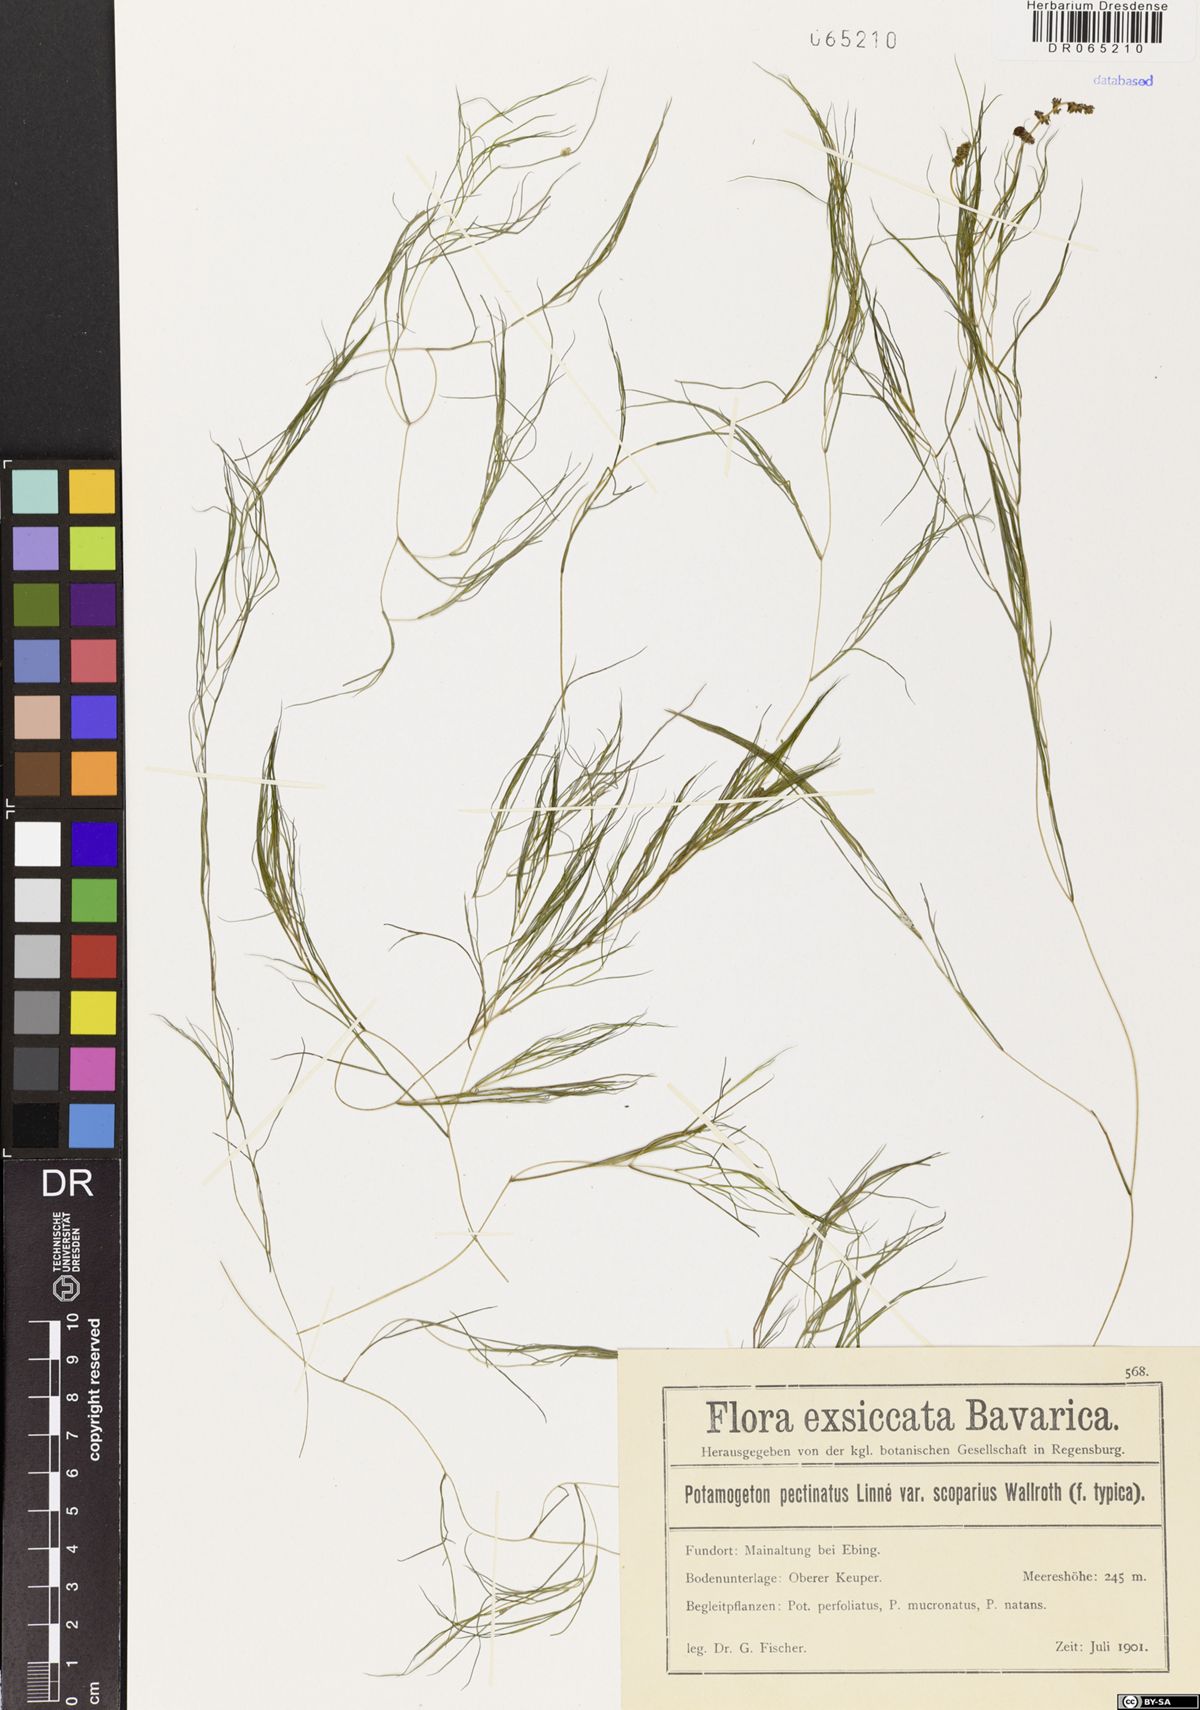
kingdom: Plantae
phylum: Tracheophyta
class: Liliopsida
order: Alismatales
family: Potamogetonaceae
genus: Stuckenia
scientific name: Stuckenia pectinata
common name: Sago pondweed
